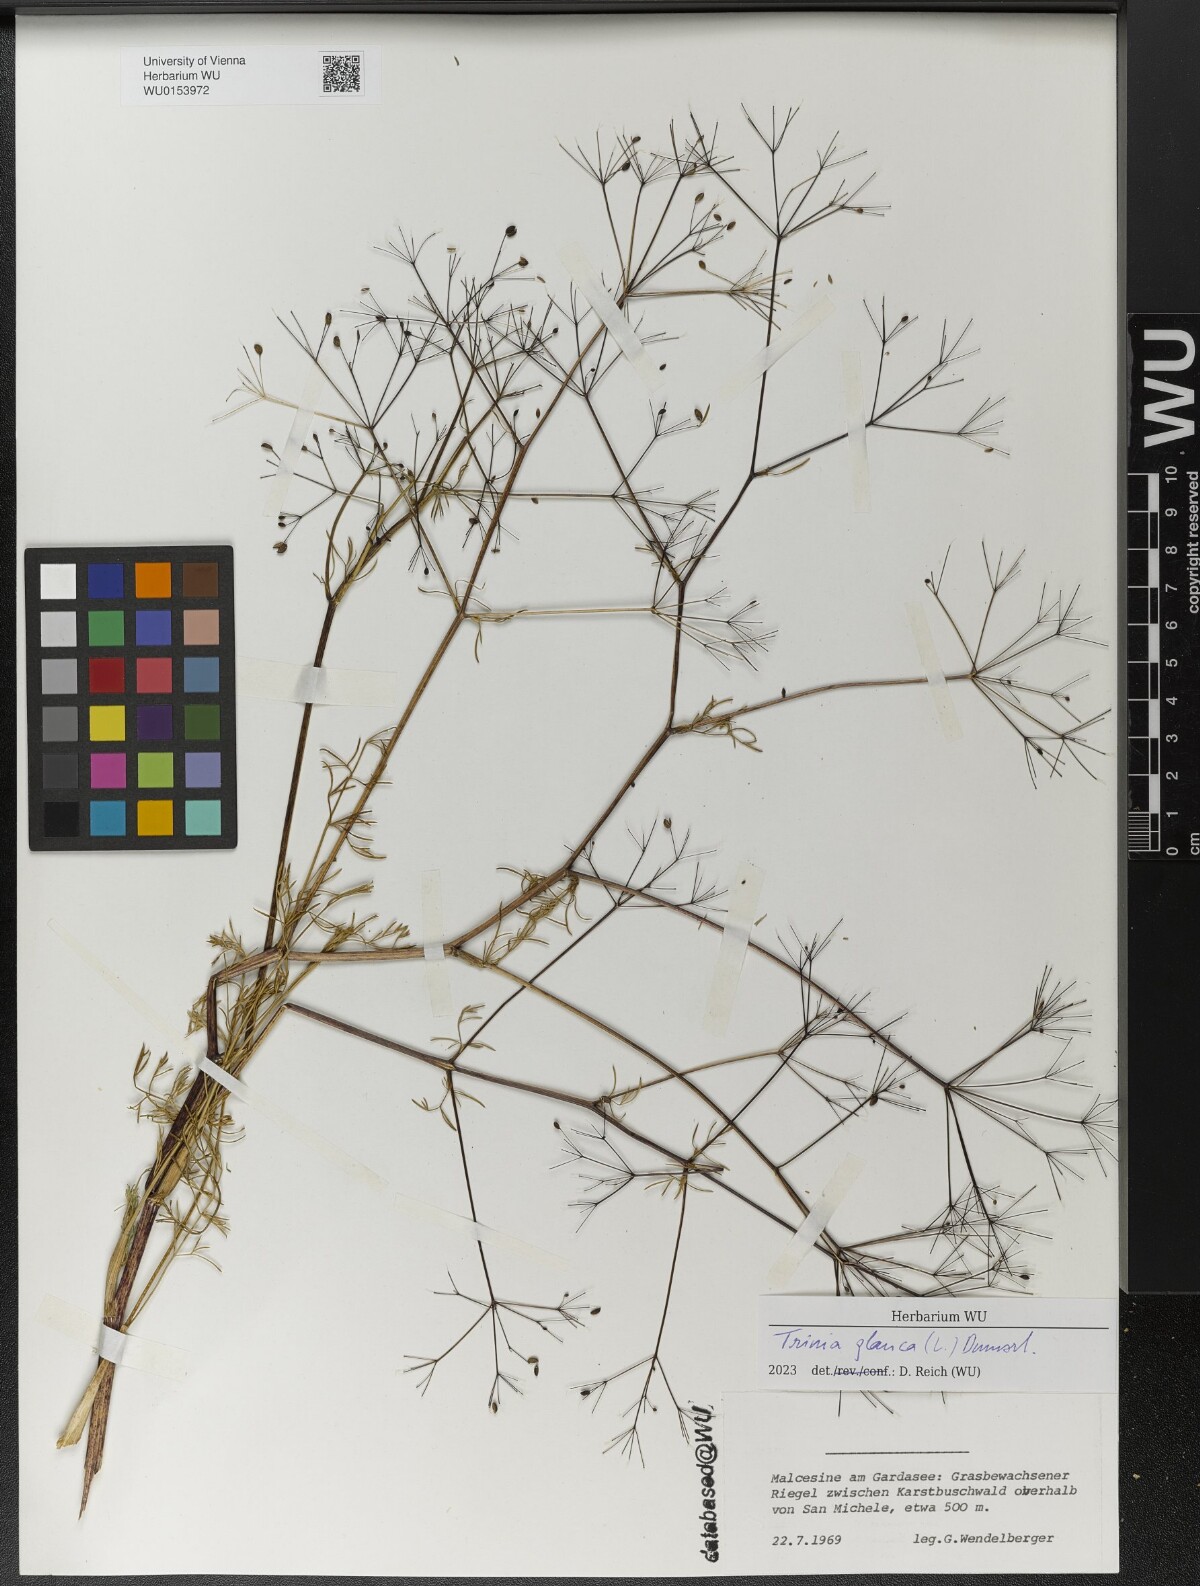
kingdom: Plantae
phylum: Tracheophyta
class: Magnoliopsida
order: Apiales
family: Apiaceae
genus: Trinia
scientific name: Trinia glauca
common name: Honewort
